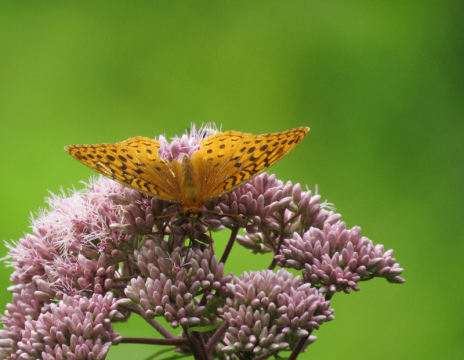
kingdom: Animalia
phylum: Arthropoda
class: Insecta
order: Lepidoptera
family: Nymphalidae
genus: Speyeria
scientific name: Speyeria cybele
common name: Great Spangled Fritillary
